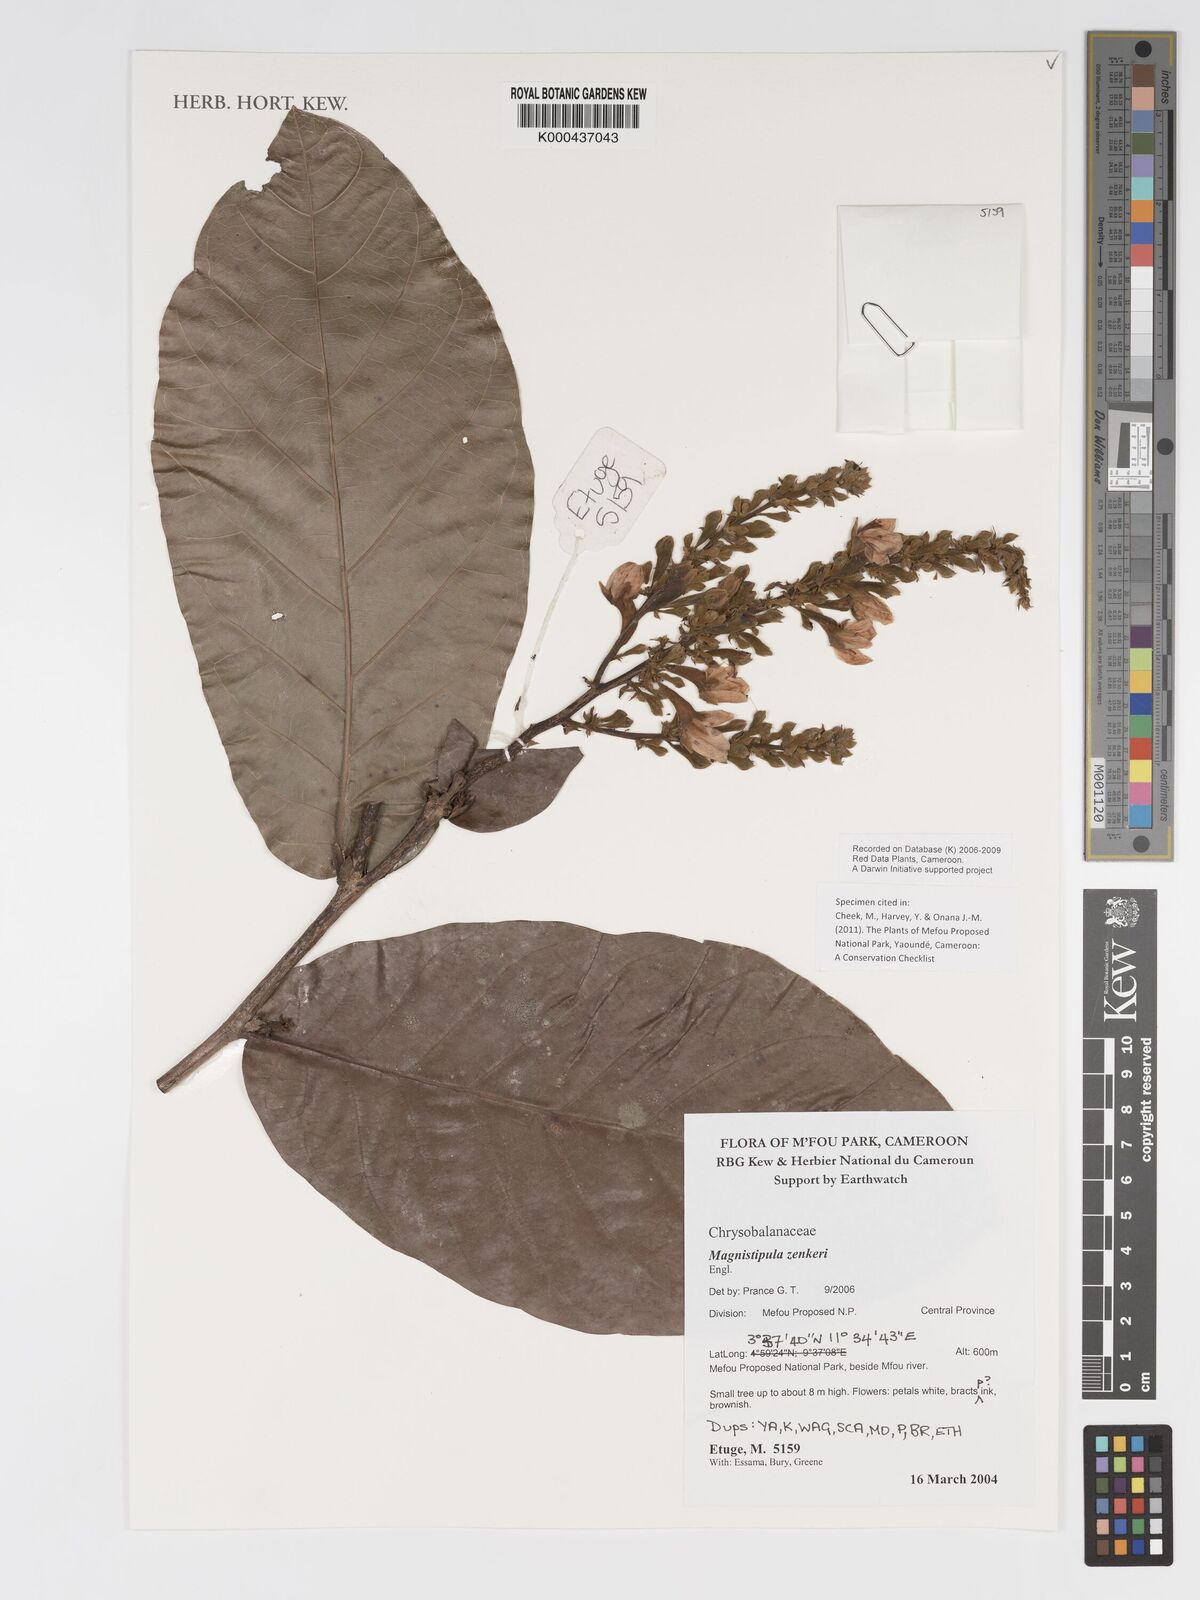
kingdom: Plantae
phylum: Tracheophyta
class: Magnoliopsida
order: Malpighiales
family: Chrysobalanaceae
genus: Magnistipula
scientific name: Magnistipula zenkeri
